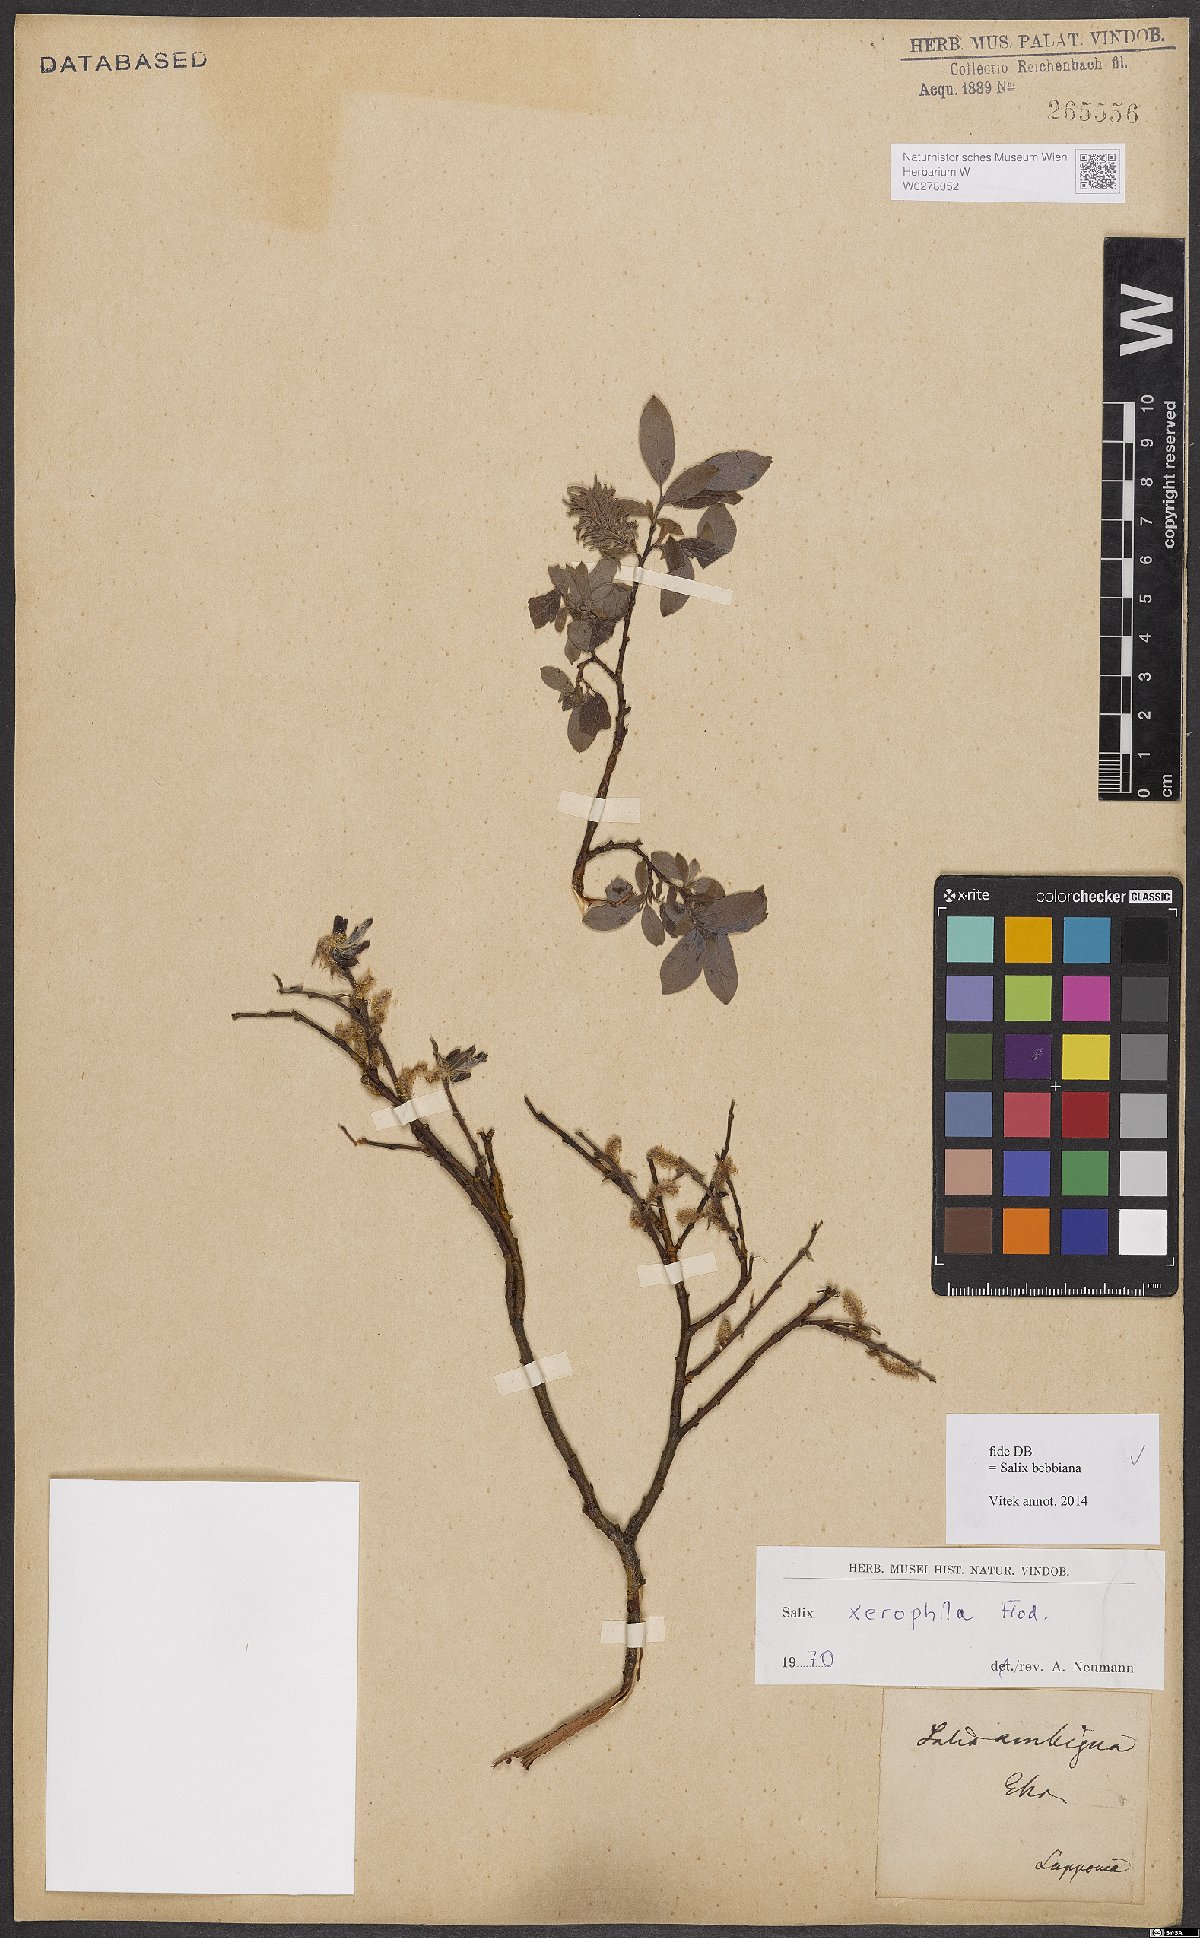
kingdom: Plantae
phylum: Tracheophyta
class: Magnoliopsida
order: Malpighiales
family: Salicaceae
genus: Salix
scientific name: Salix bebbiana
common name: Bebb's willow
